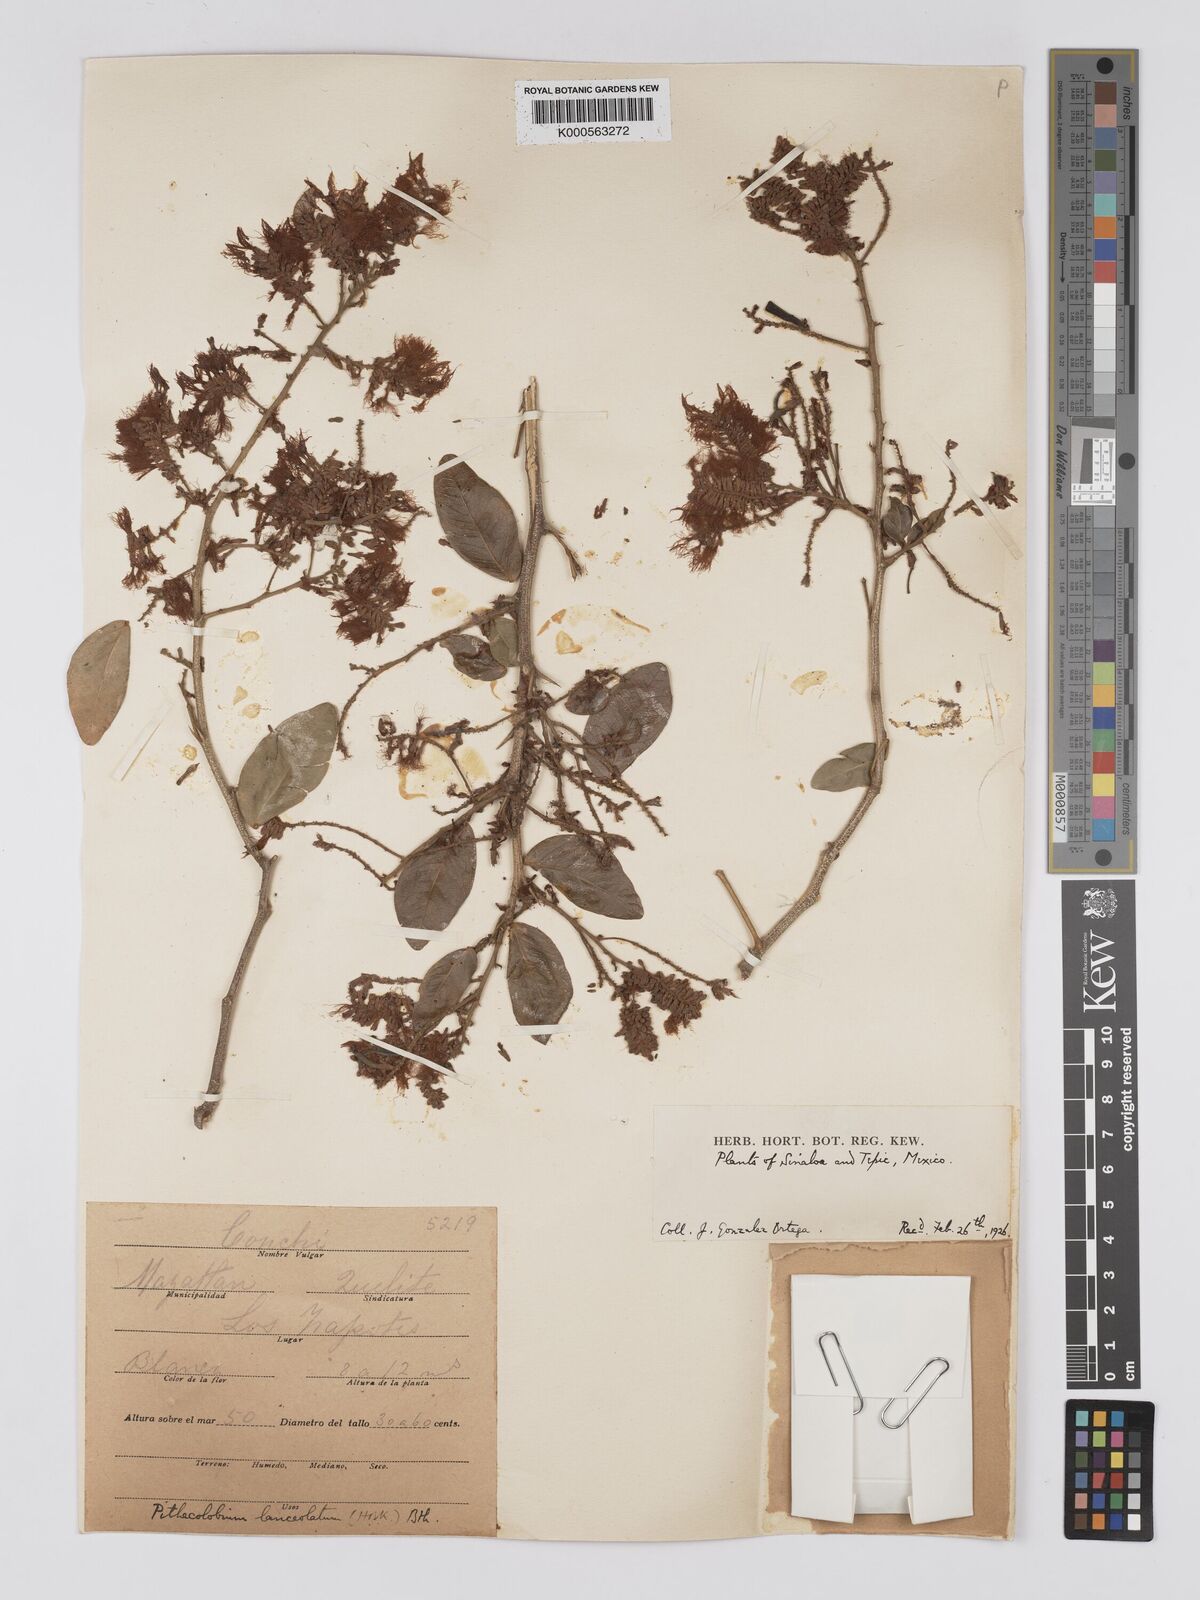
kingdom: Plantae
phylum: Tracheophyta
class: Magnoliopsida
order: Fabales
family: Fabaceae
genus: Pithecellobium
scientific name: Pithecellobium lanceolatum
